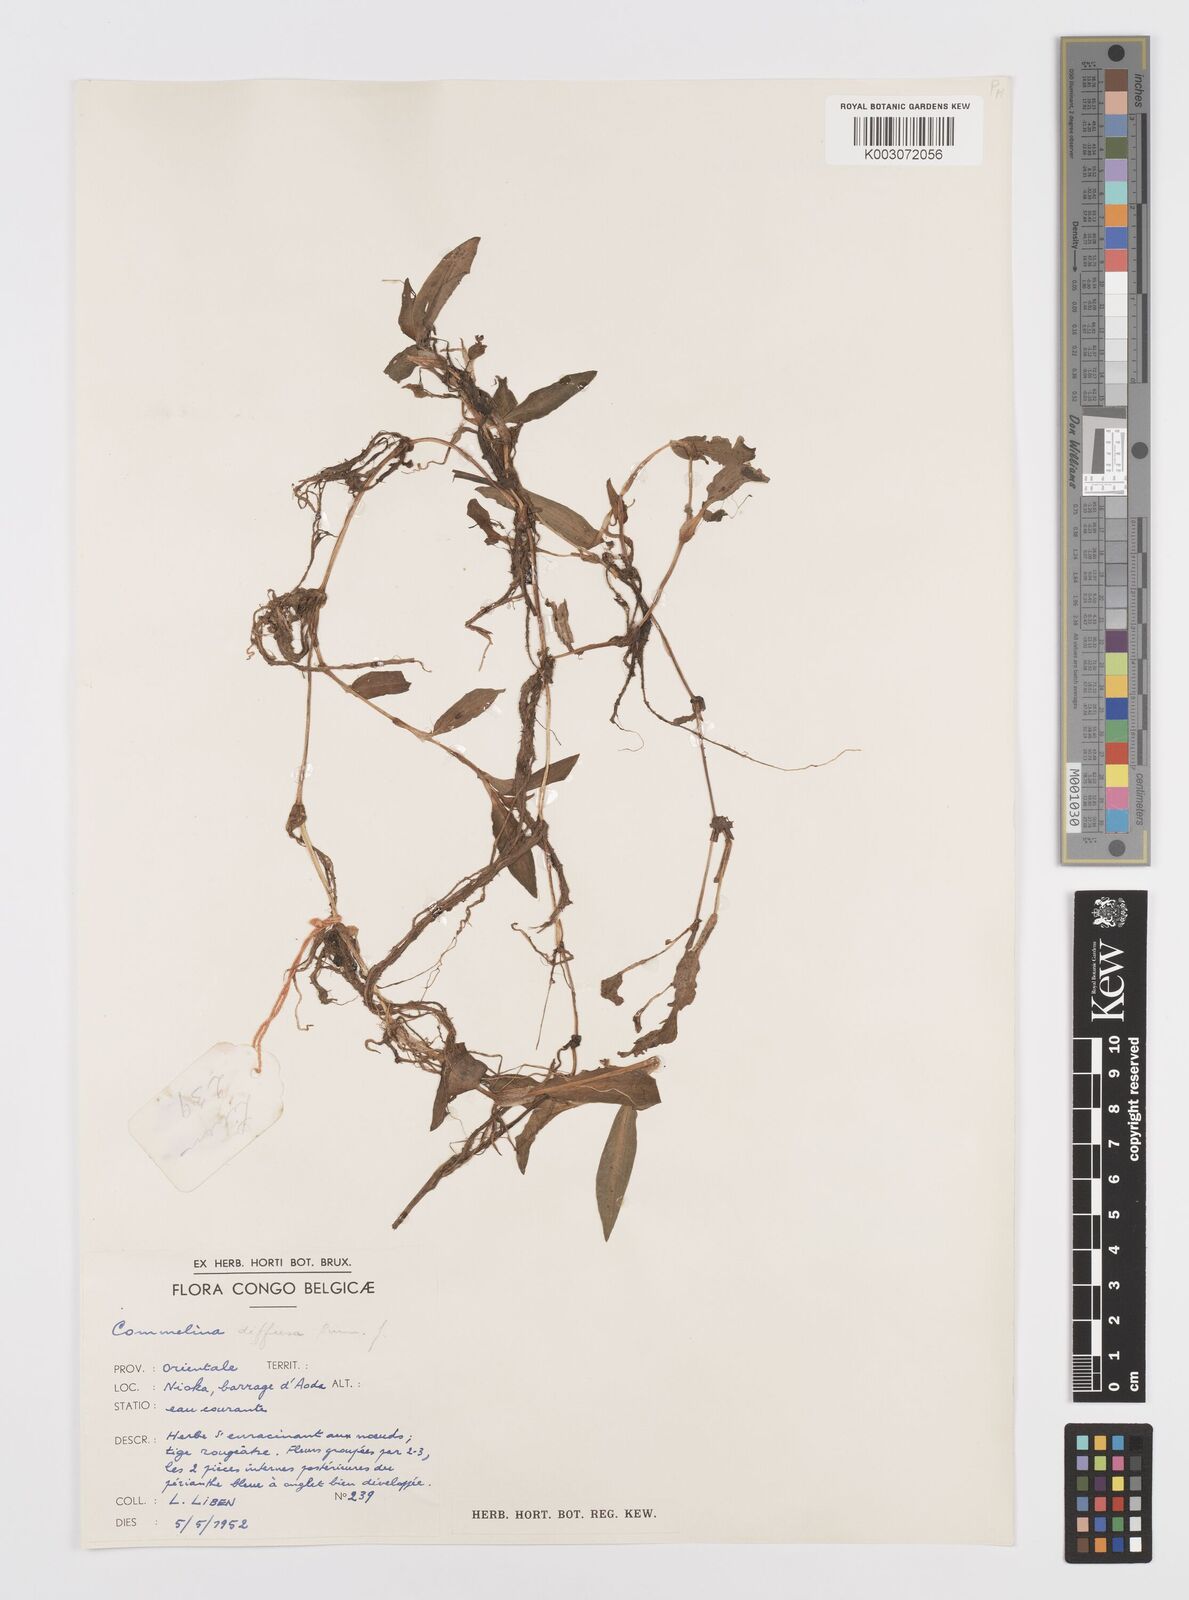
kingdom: Plantae
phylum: Tracheophyta
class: Liliopsida
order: Commelinales
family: Commelinaceae
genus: Commelina
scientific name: Commelina diffusa
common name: Climbing dayflower
